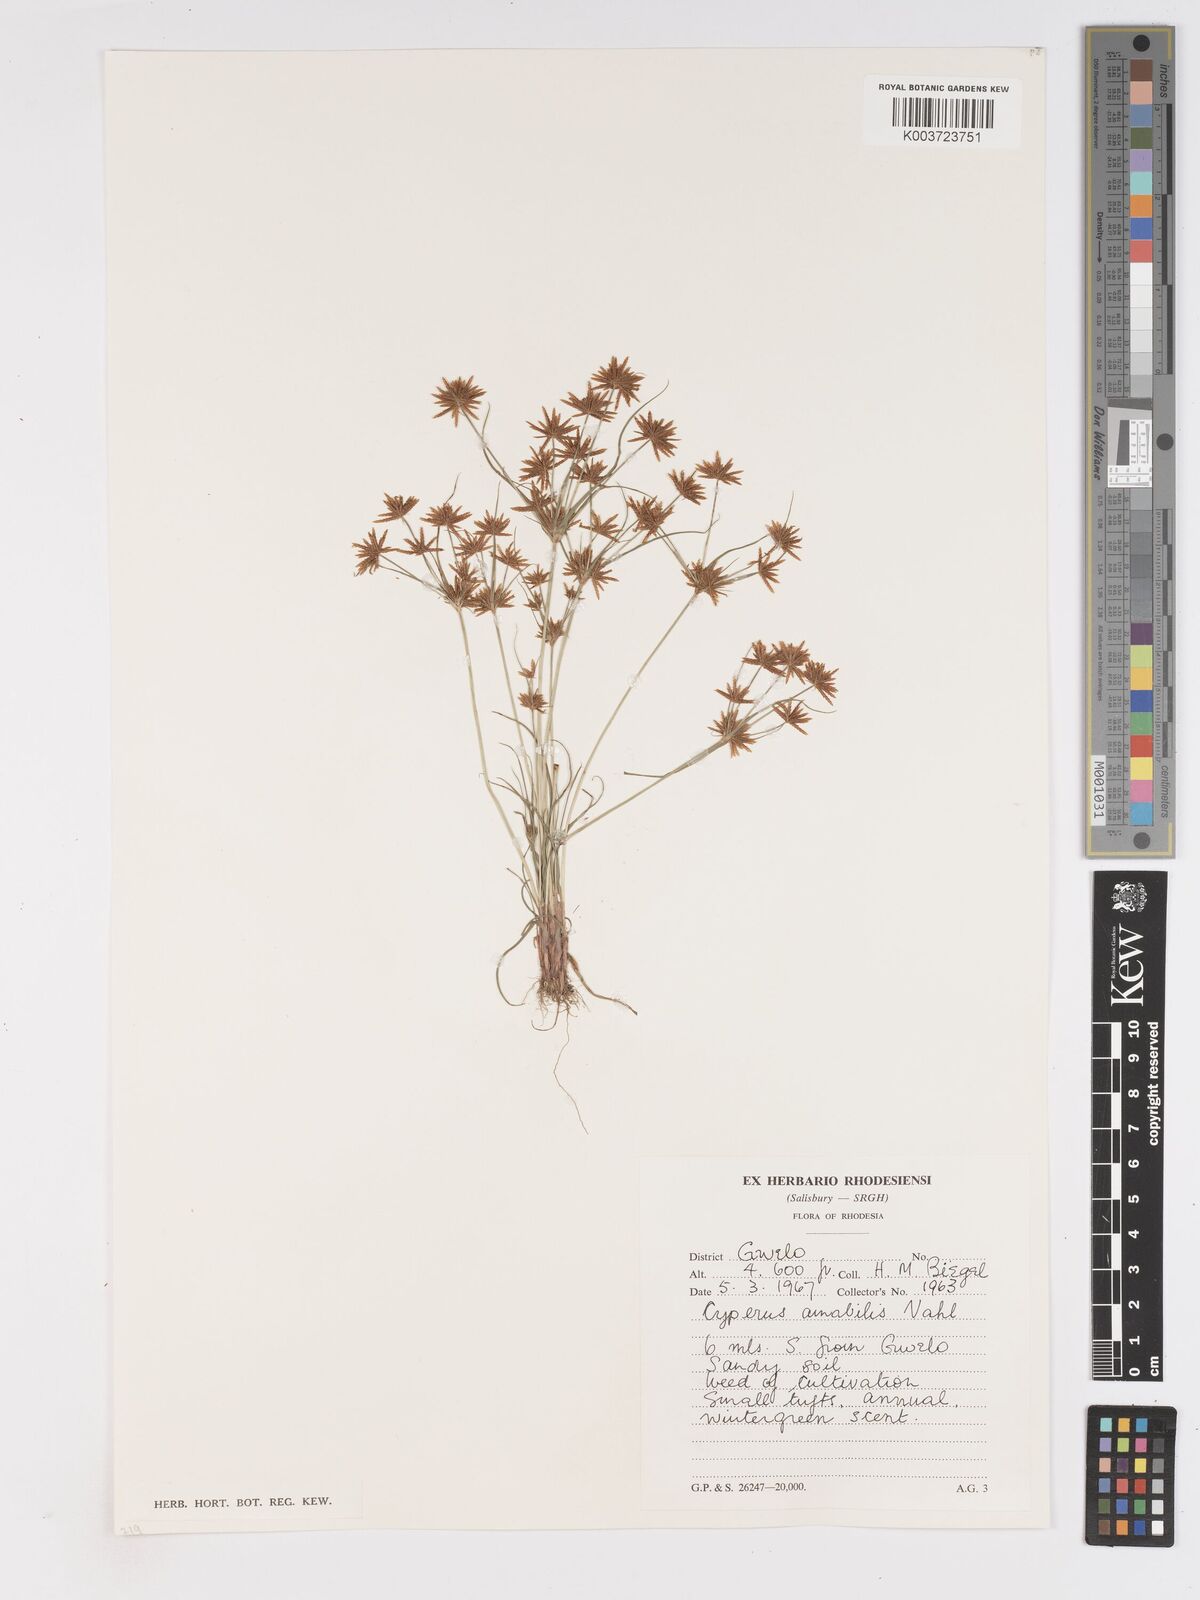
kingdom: Plantae
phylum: Tracheophyta
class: Liliopsida
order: Poales
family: Cyperaceae
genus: Cyperus
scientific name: Cyperus amabilis
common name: Foothill flat sedge
